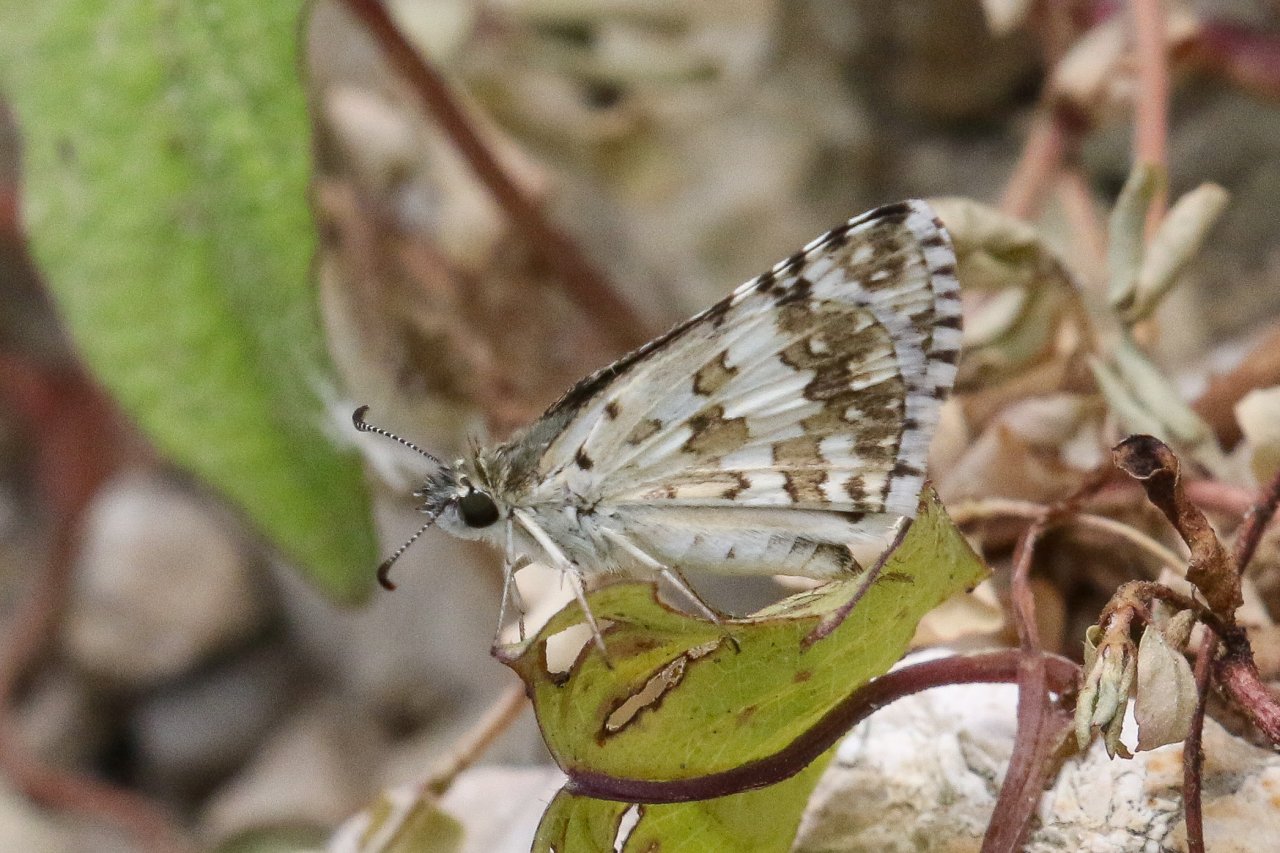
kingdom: Animalia
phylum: Arthropoda
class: Insecta
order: Lepidoptera
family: Hesperiidae
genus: Pyrgus
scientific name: Pyrgus communis
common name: Common Checkered-Skipper
